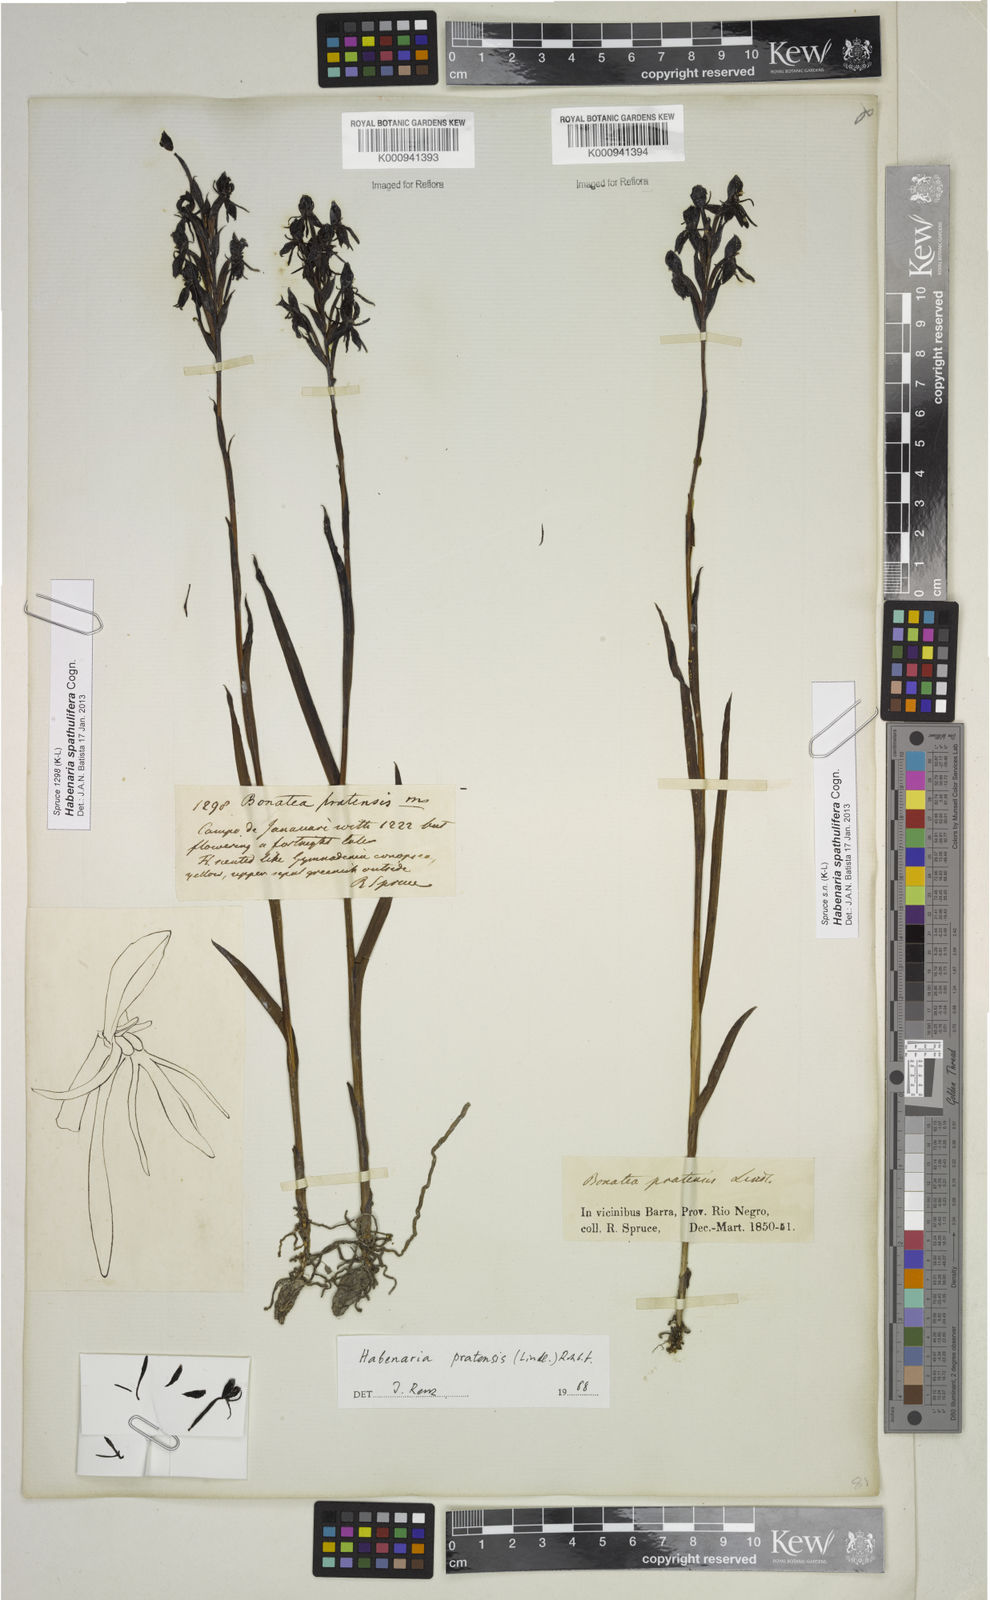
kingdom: Plantae
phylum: Tracheophyta
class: Liliopsida
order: Asparagales
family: Orchidaceae
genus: Habenaria
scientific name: Habenaria spathulifera
